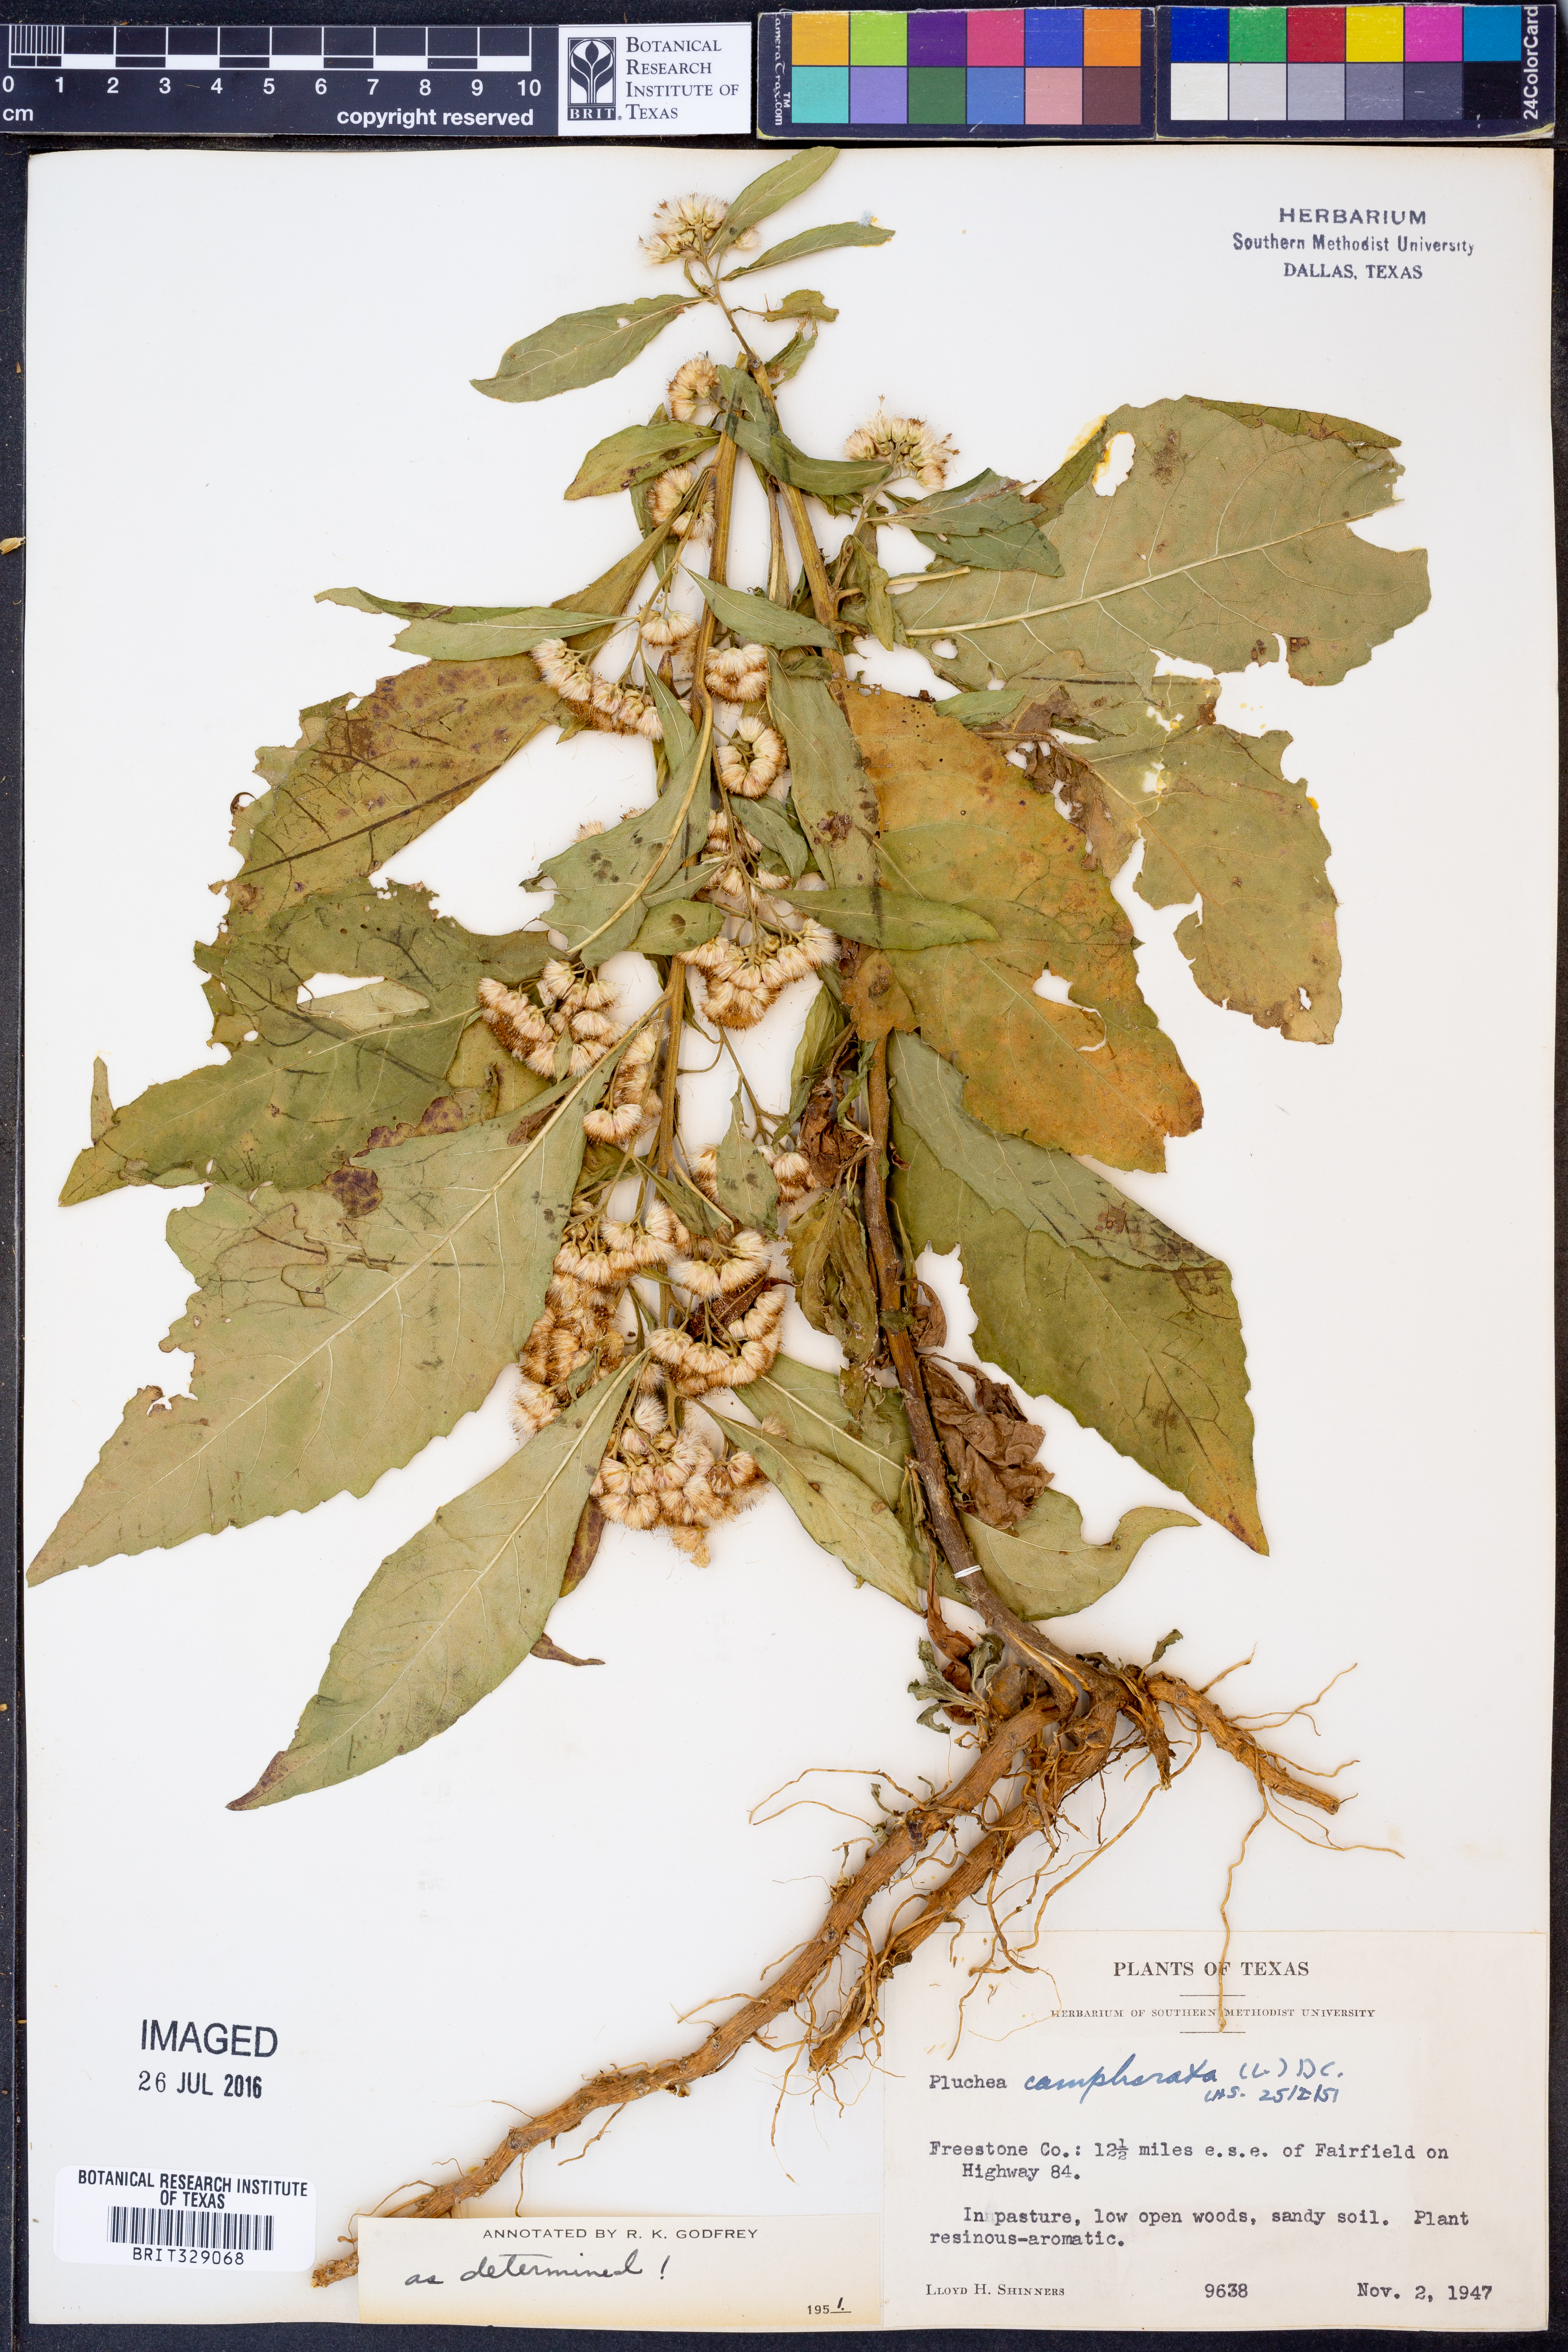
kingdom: Plantae
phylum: Tracheophyta
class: Magnoliopsida
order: Asterales
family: Asteraceae
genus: Pluchea
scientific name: Pluchea camphorata
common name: Camphor pluchea
